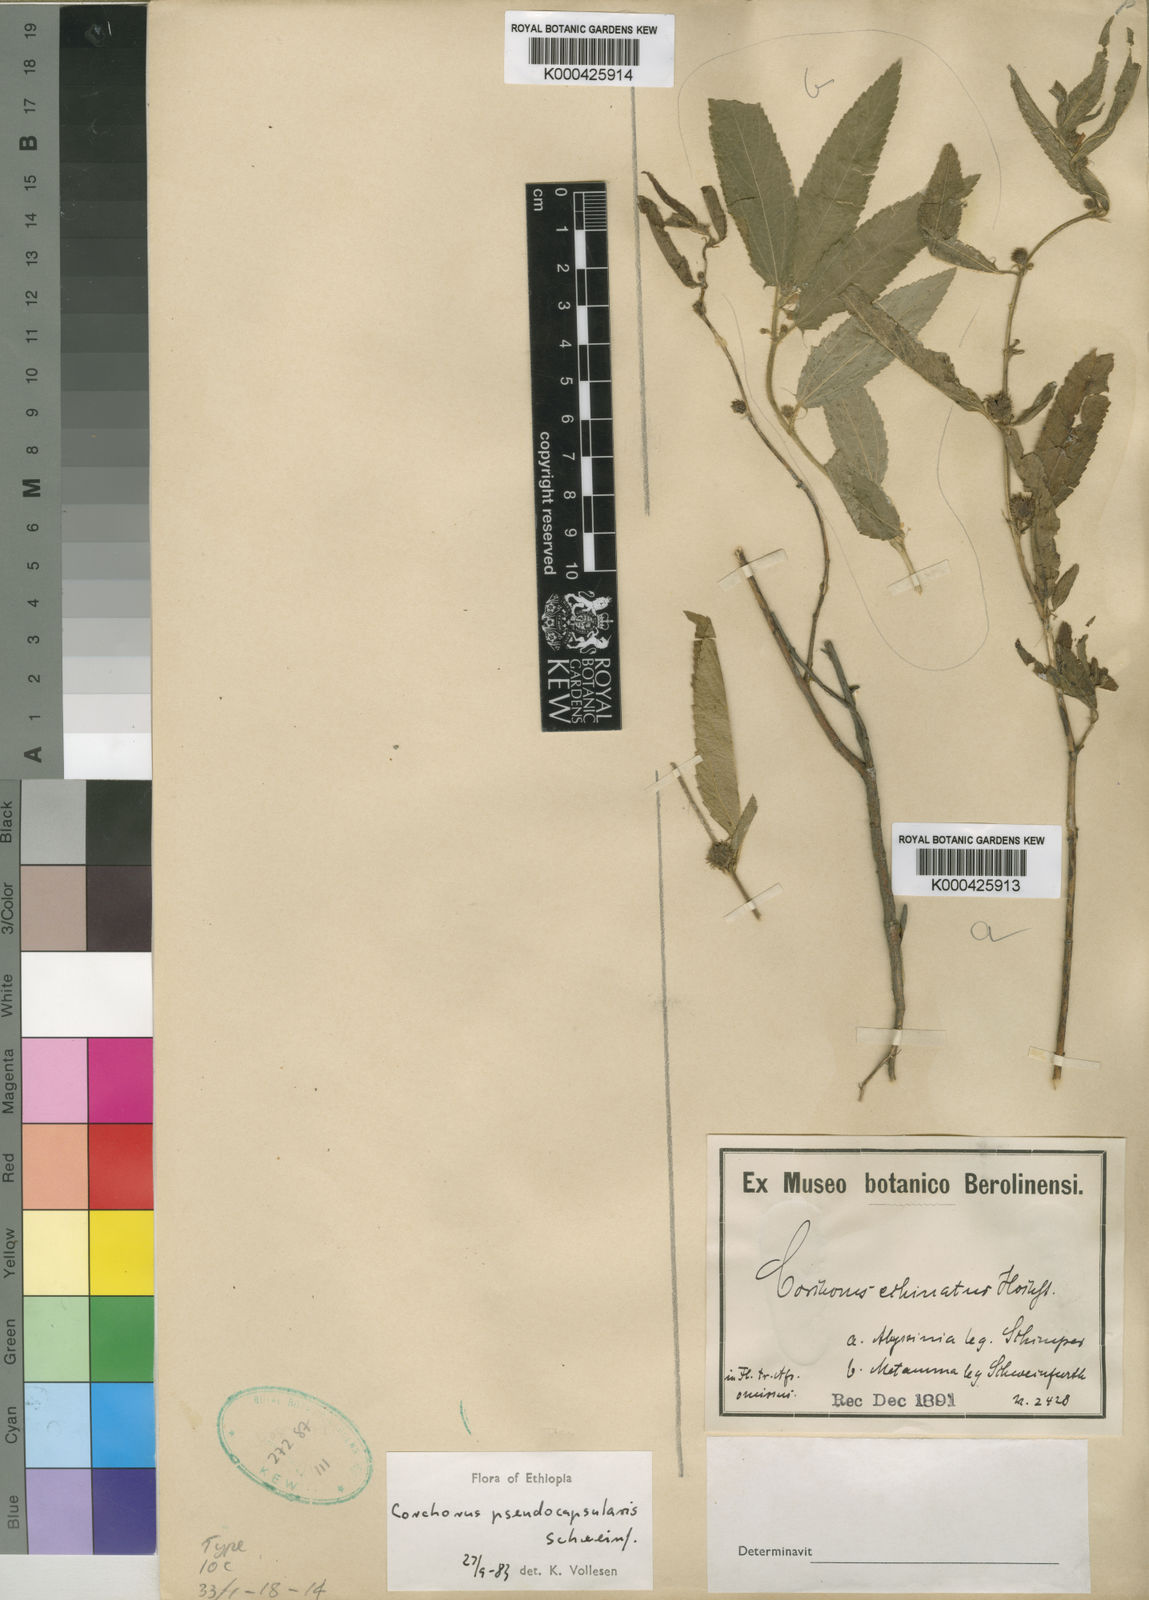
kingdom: Plantae
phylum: Tracheophyta
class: Magnoliopsida
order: Malvales
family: Malvaceae
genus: Corchorus
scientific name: Corchorus pseudocapsularis
